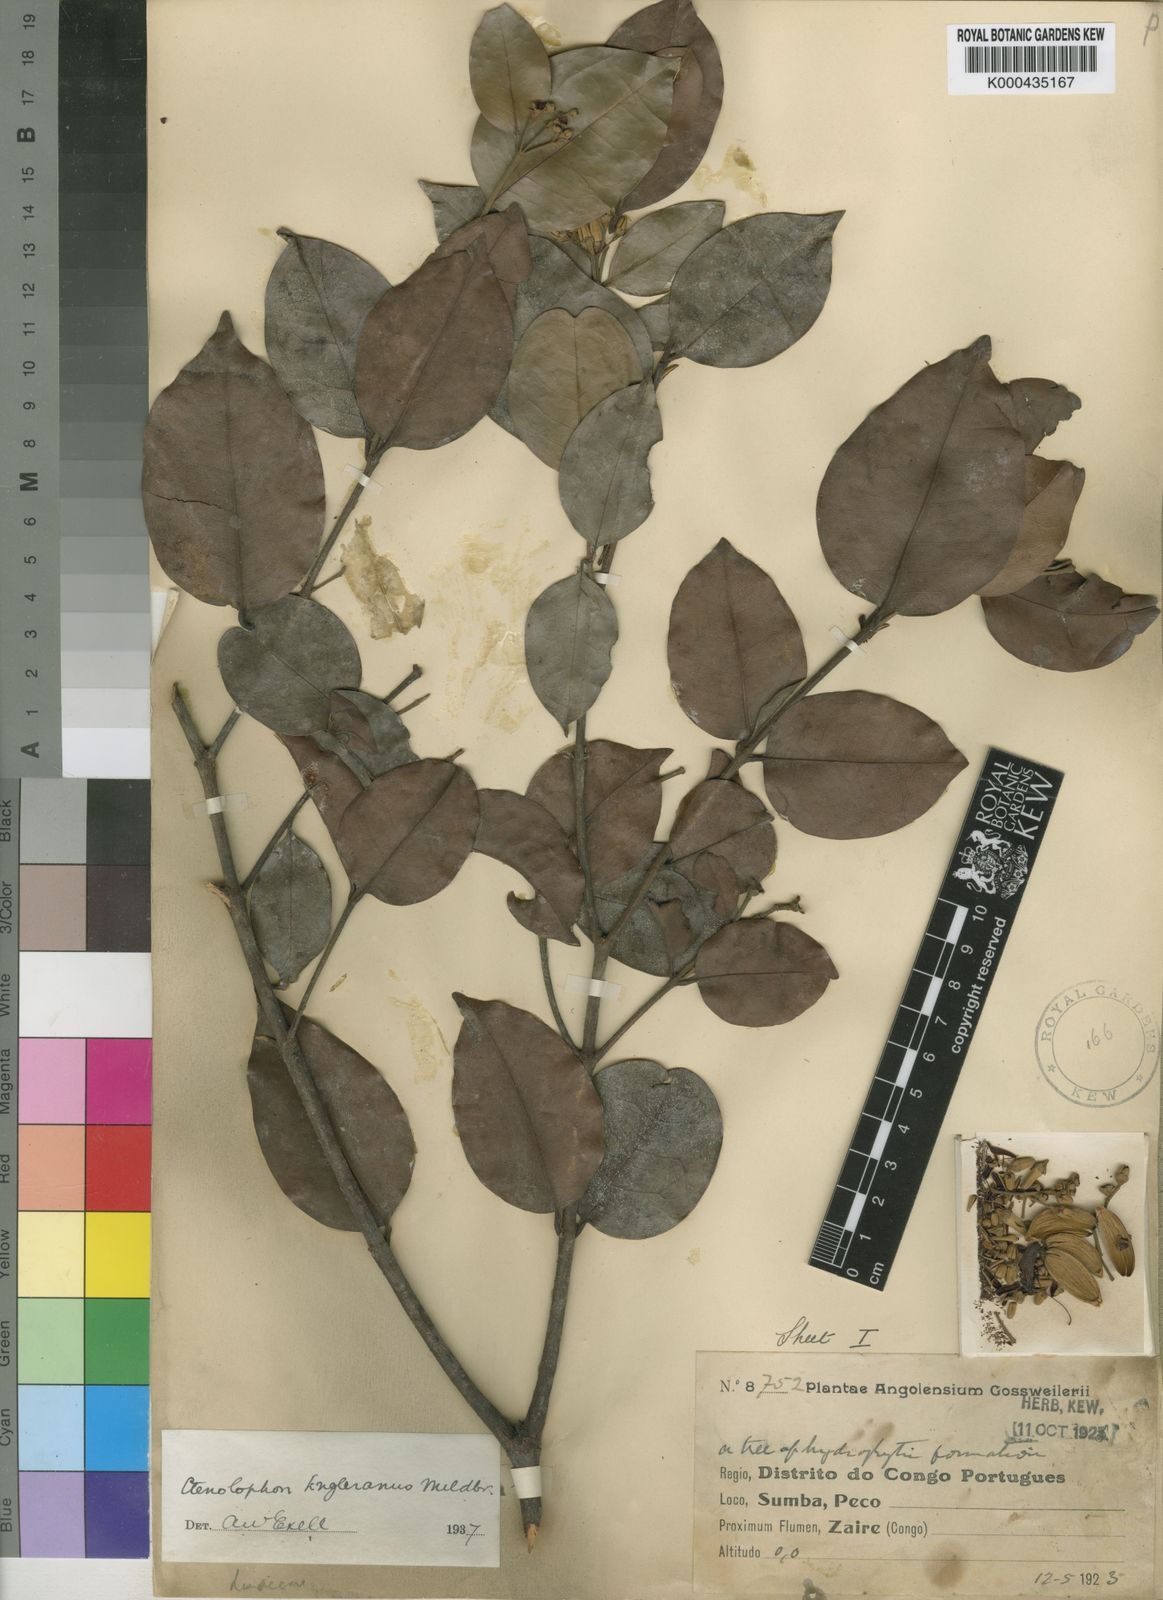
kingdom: Plantae
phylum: Tracheophyta
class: Magnoliopsida
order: Malpighiales
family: Ctenolophonaceae
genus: Ctenolophon
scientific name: Ctenolophon englerianus
